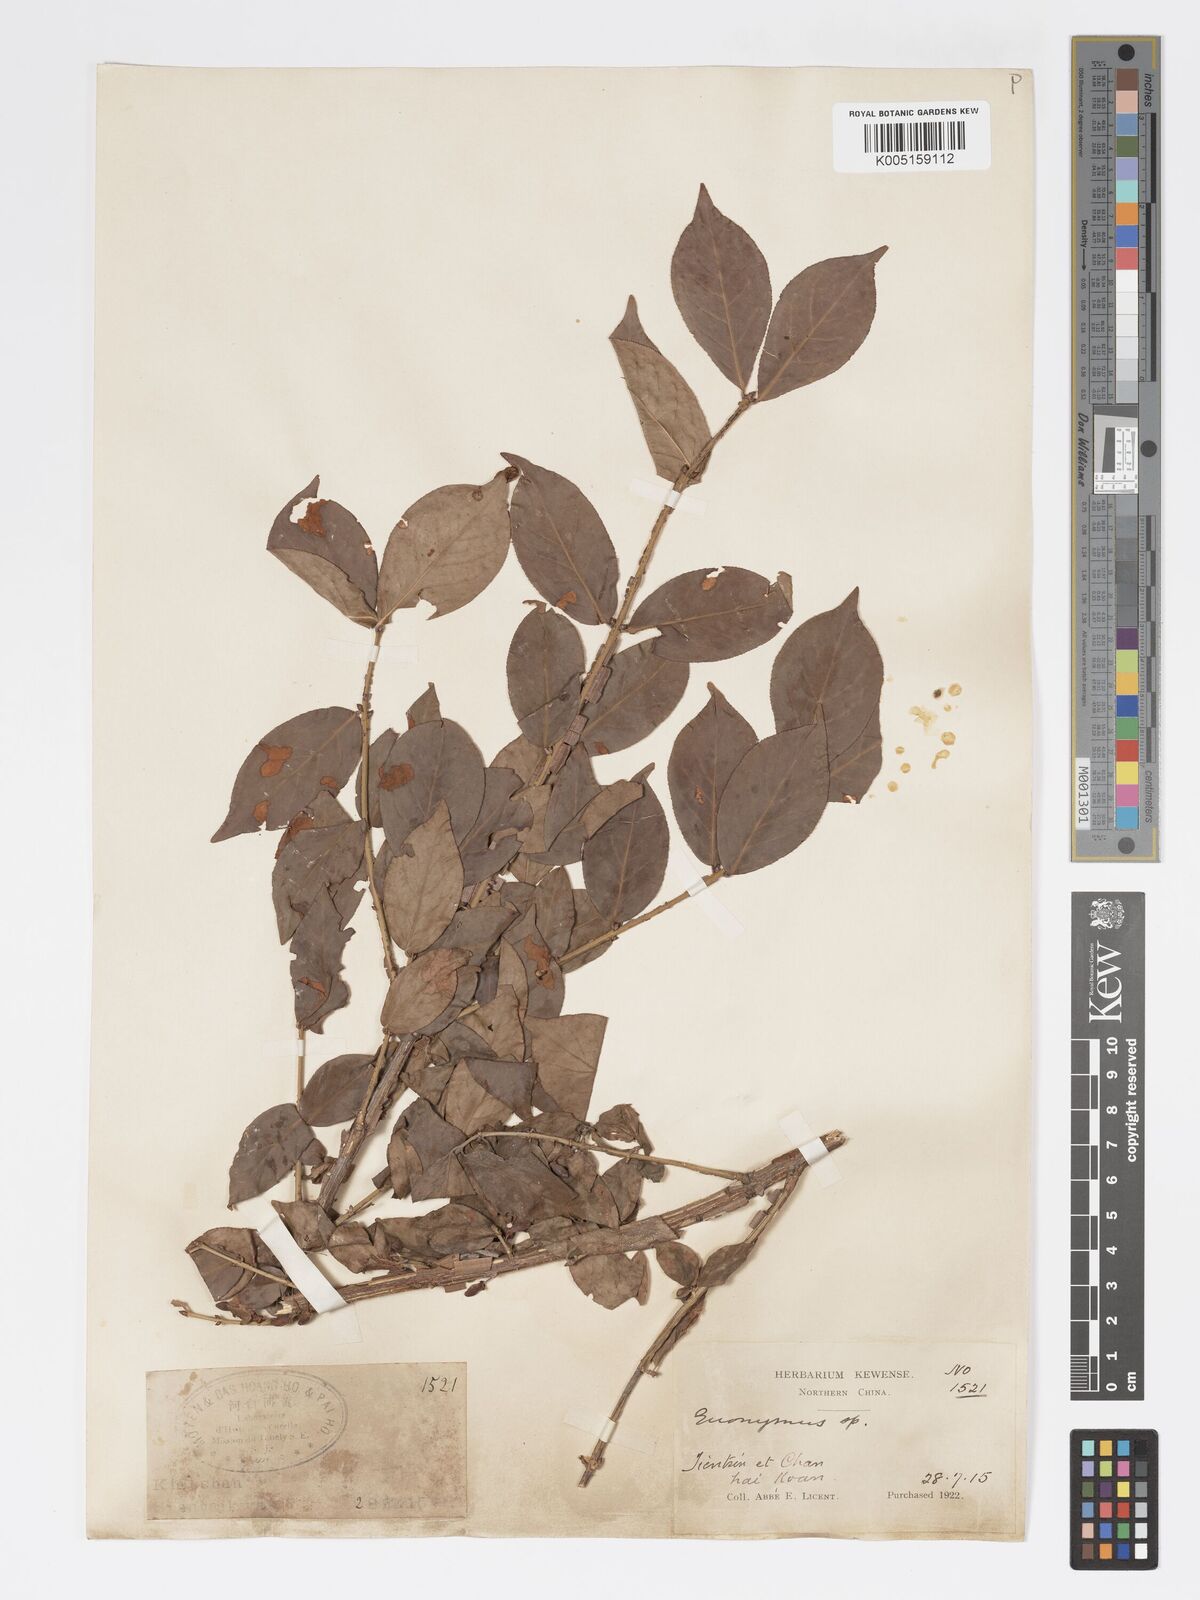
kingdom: Plantae
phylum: Tracheophyta
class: Magnoliopsida
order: Celastrales
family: Celastraceae
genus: Euonymus
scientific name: Euonymus
